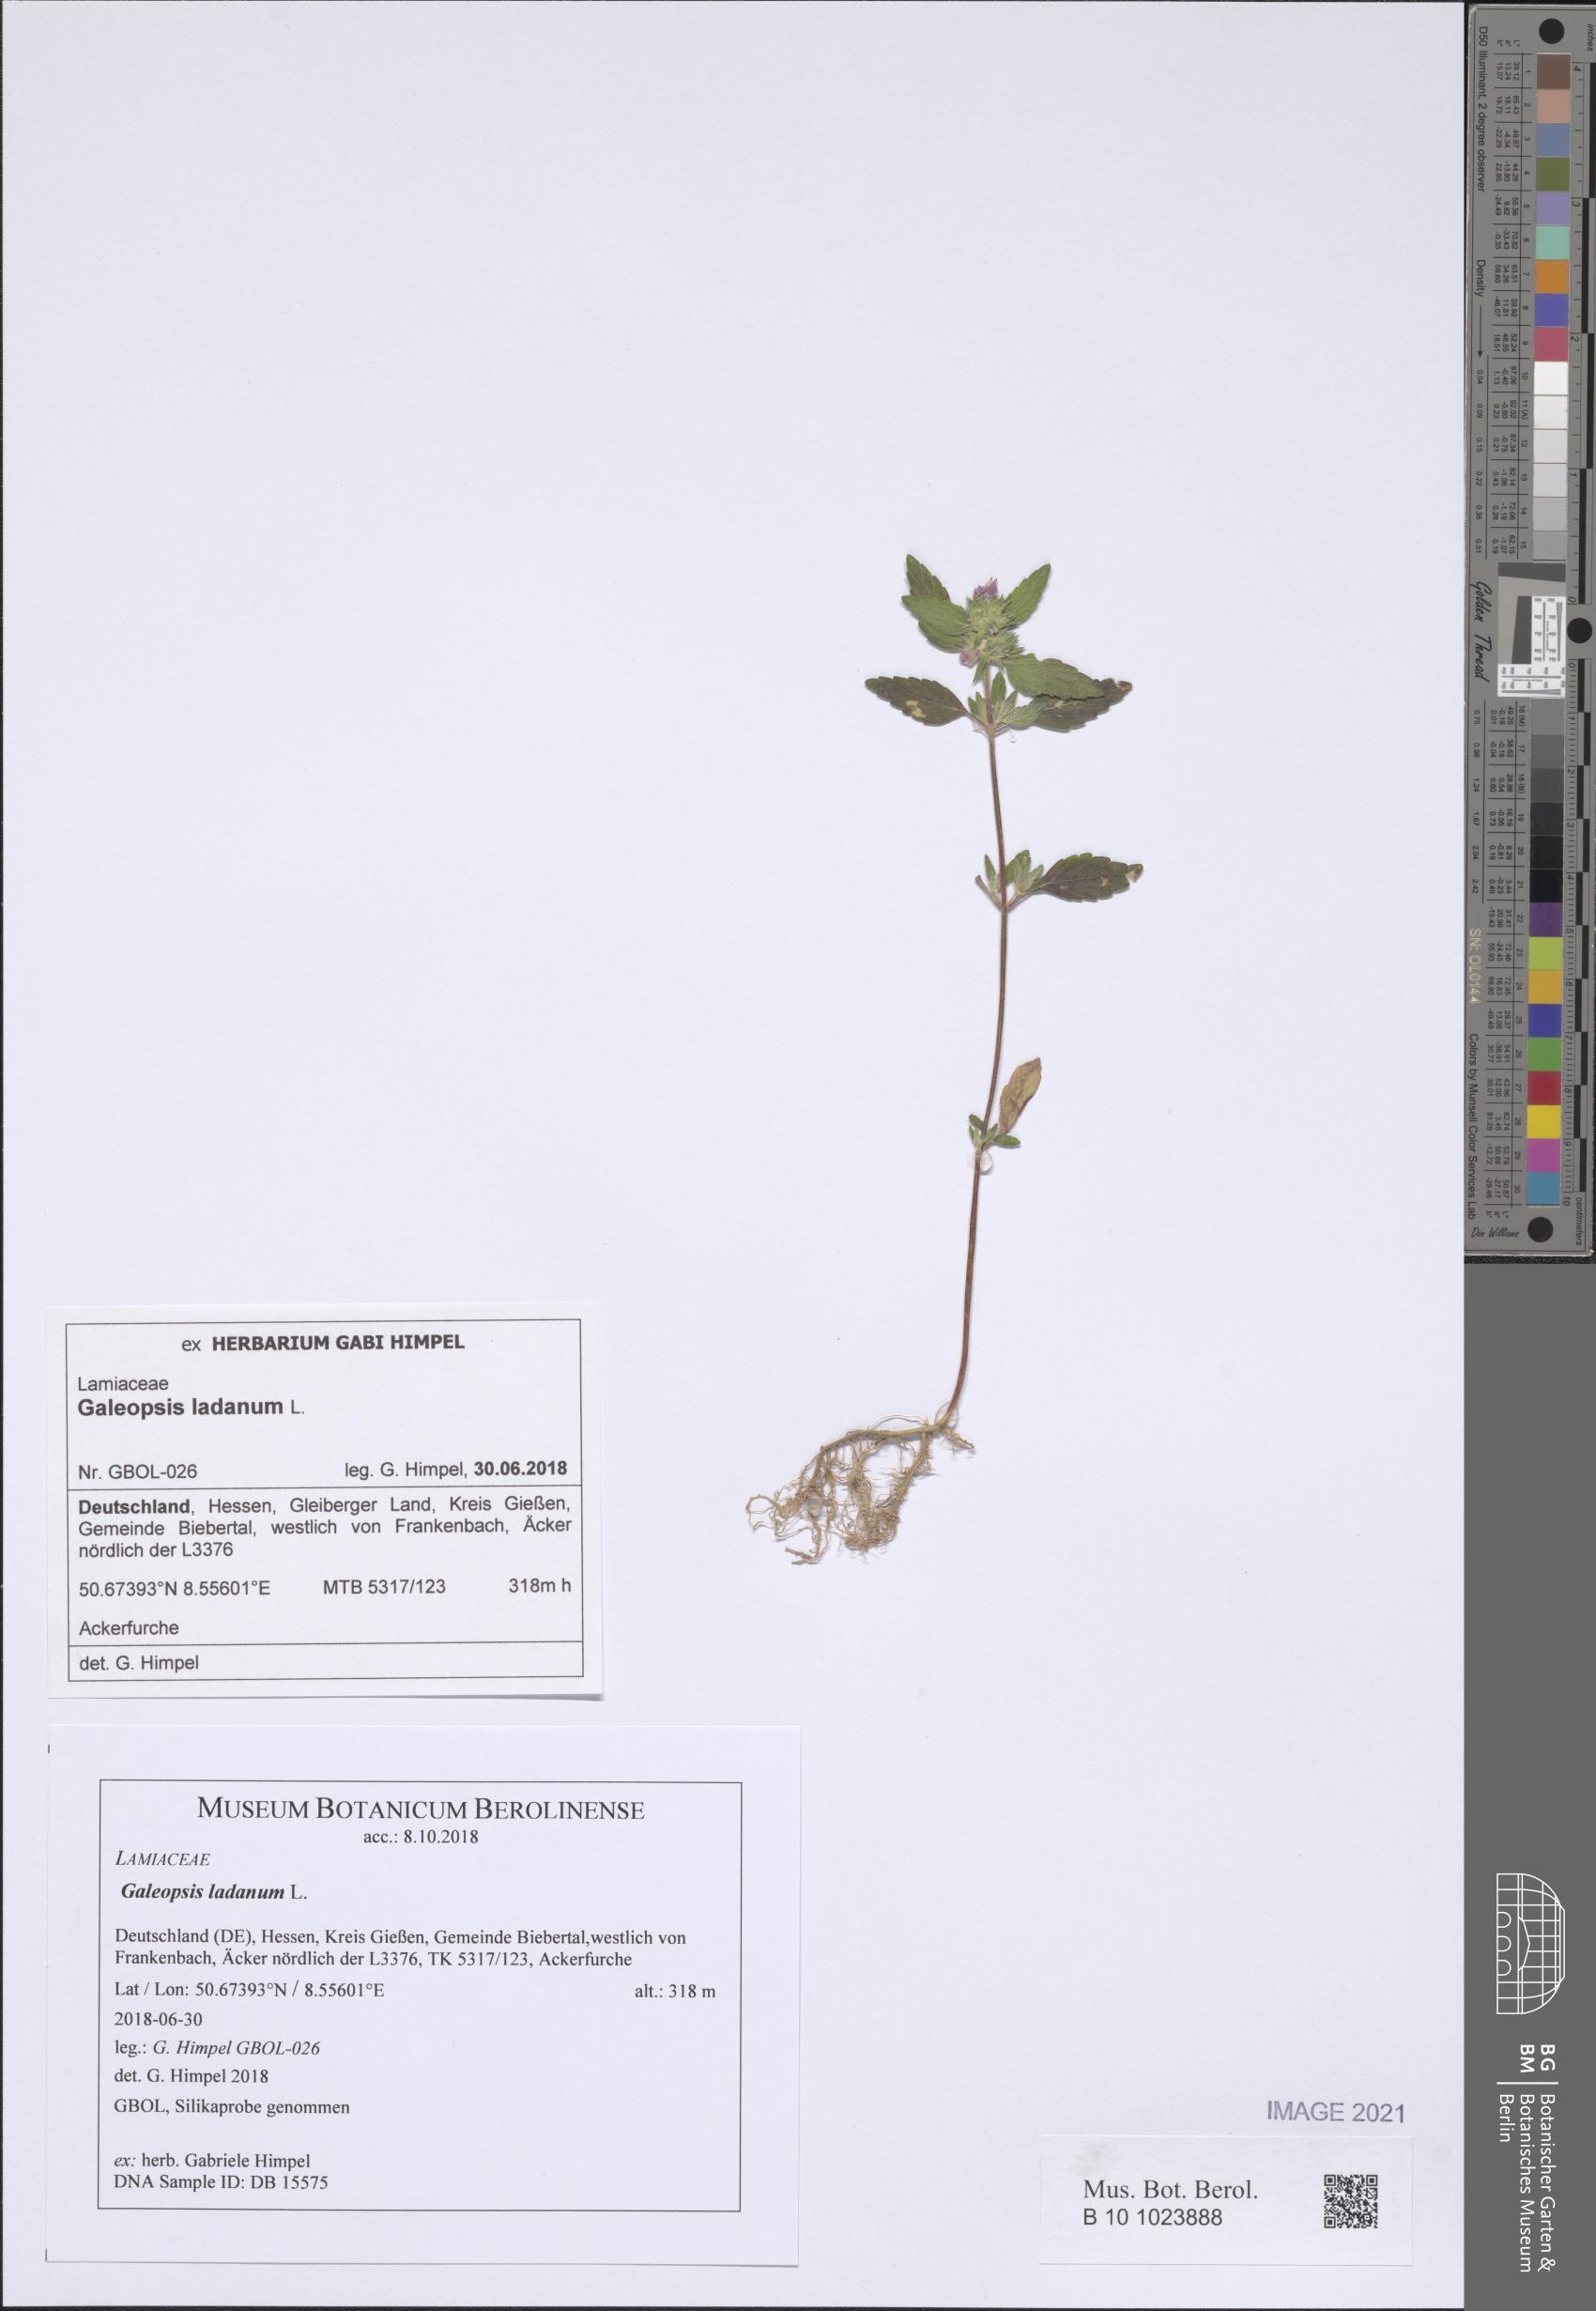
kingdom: Plantae
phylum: Tracheophyta
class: Magnoliopsida
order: Lamiales
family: Lamiaceae
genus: Galeopsis
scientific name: Galeopsis ladanum
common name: Broad-leaved hemp-nettle
